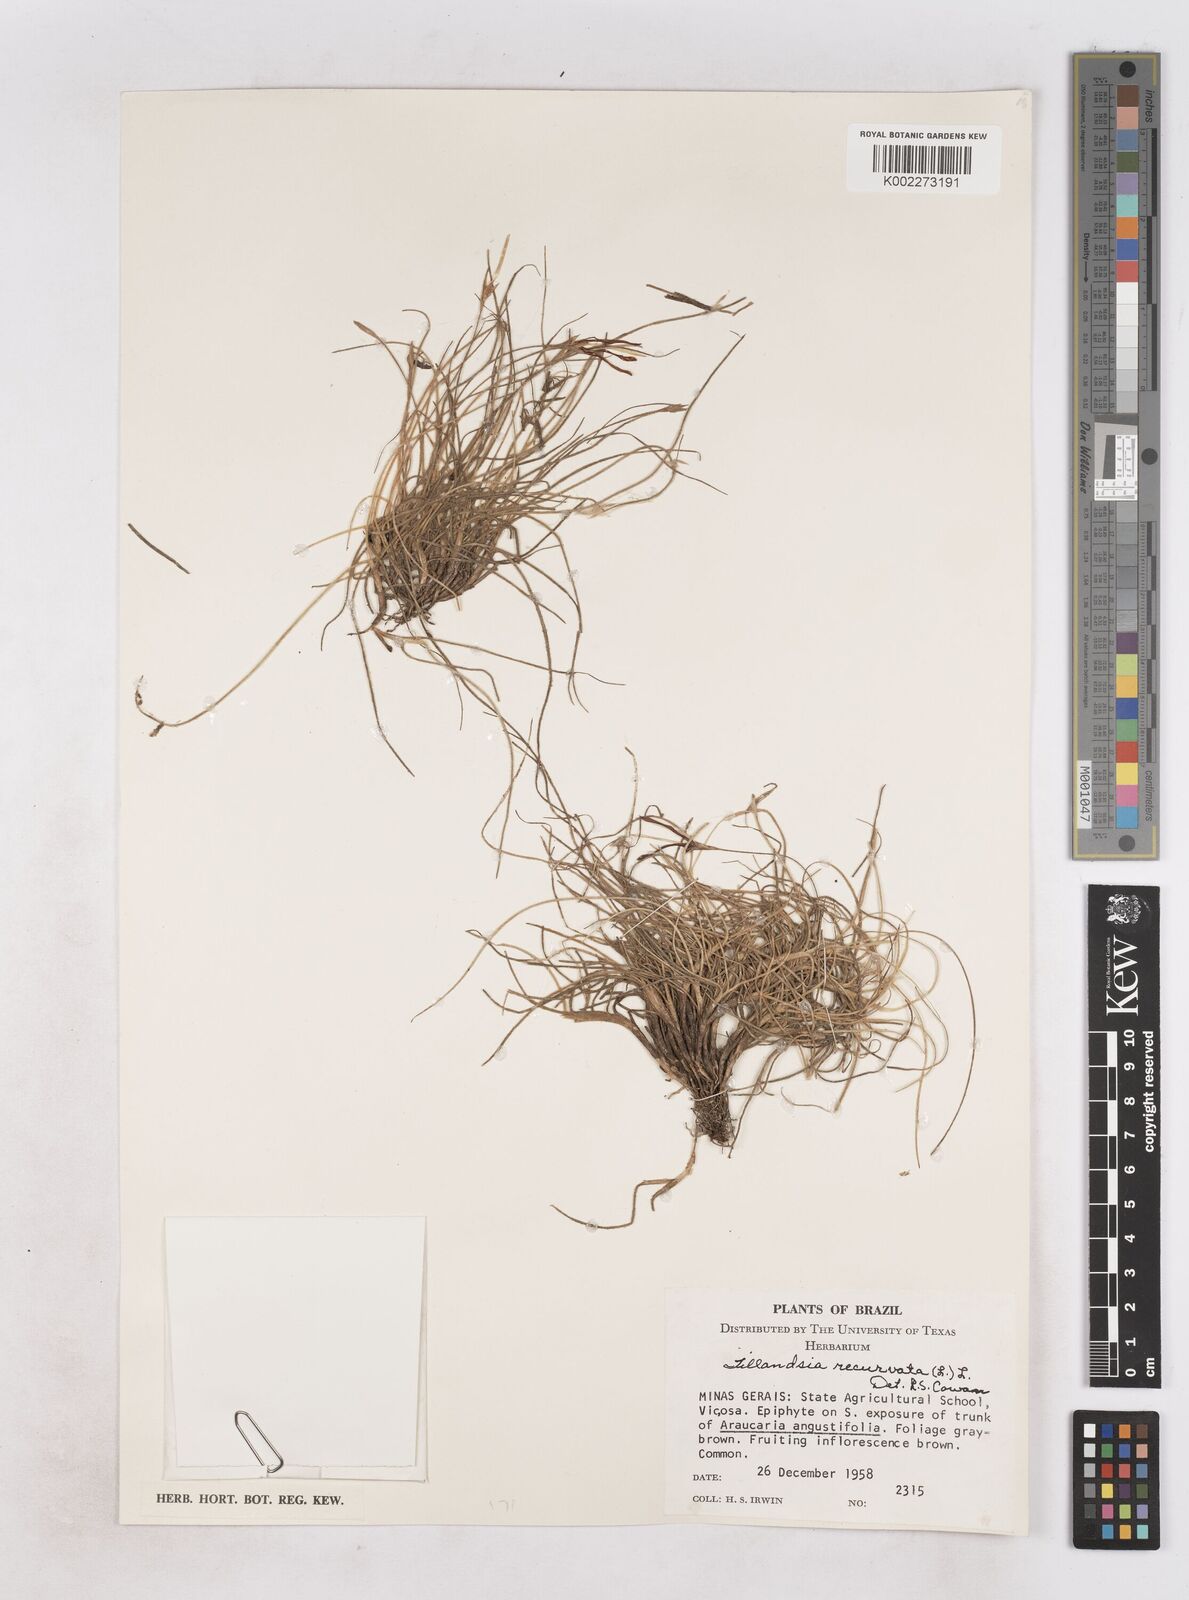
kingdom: Plantae
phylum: Tracheophyta
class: Liliopsida
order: Poales
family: Bromeliaceae
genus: Tillandsia
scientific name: Tillandsia recurvata
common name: Small ballmoss
